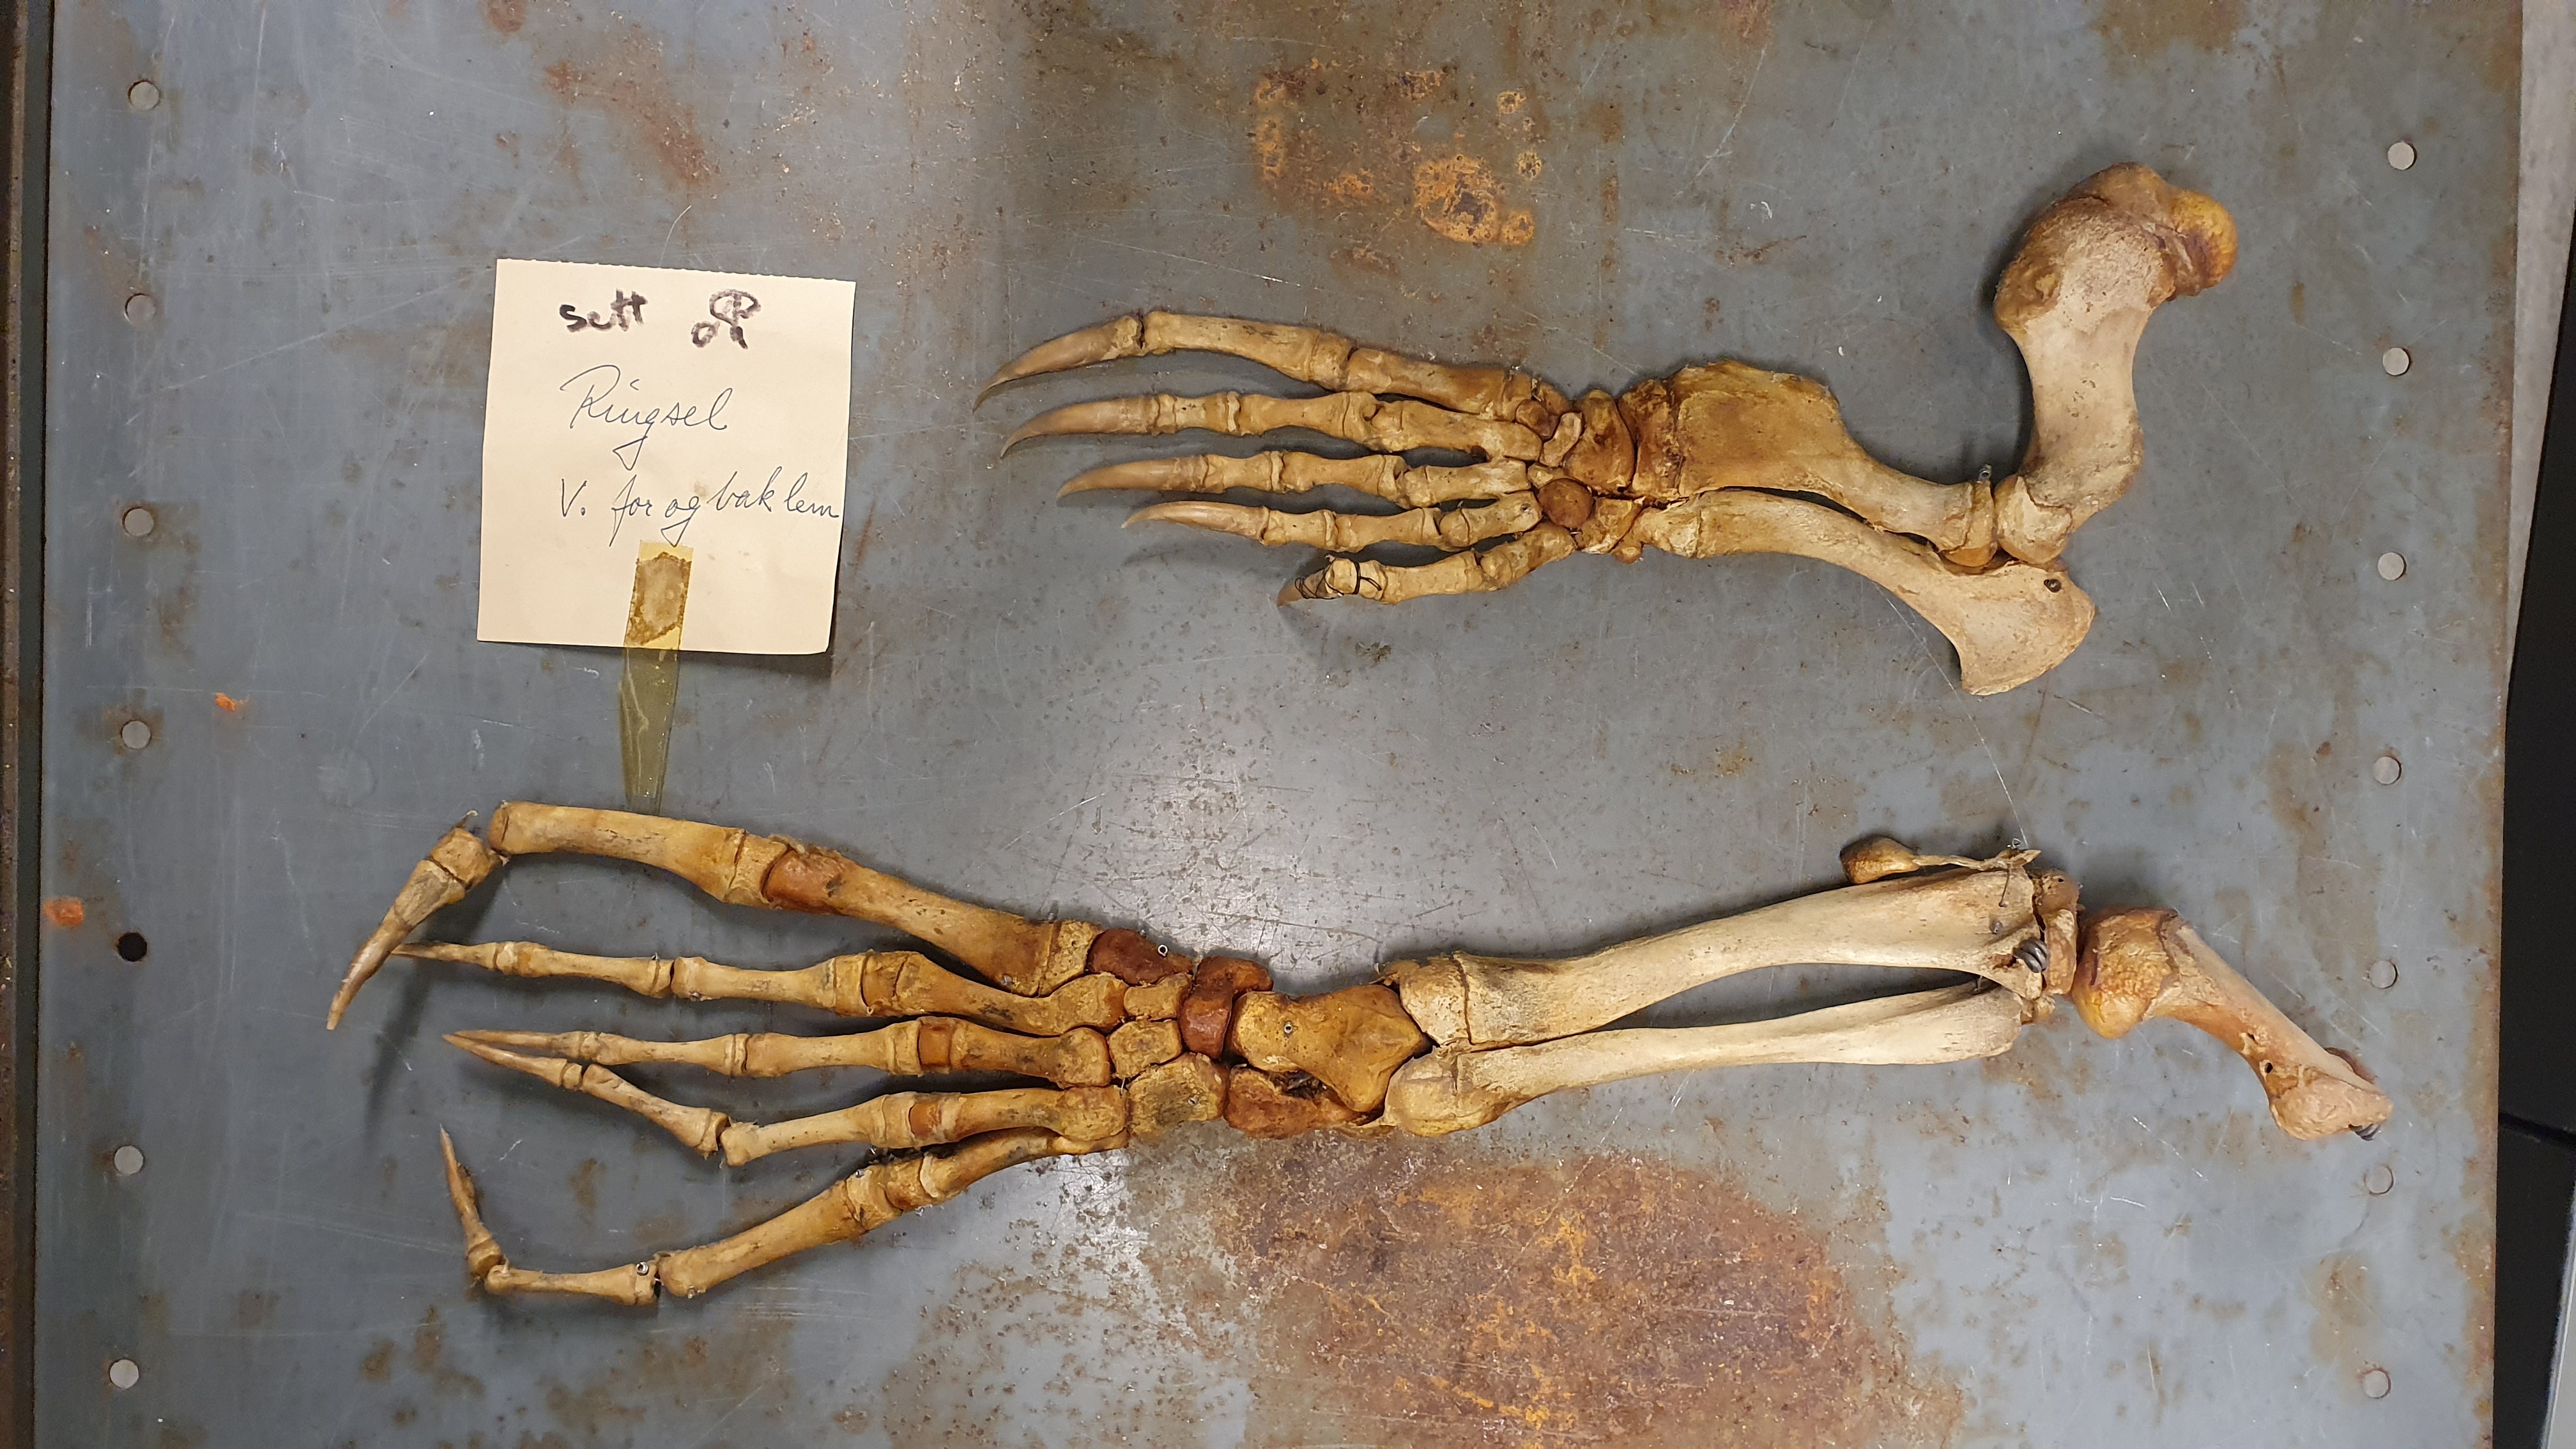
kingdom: Animalia
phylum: Chordata
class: Mammalia
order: Carnivora
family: Phocidae
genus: Pusa
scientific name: Pusa hispida
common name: Ringed seal
